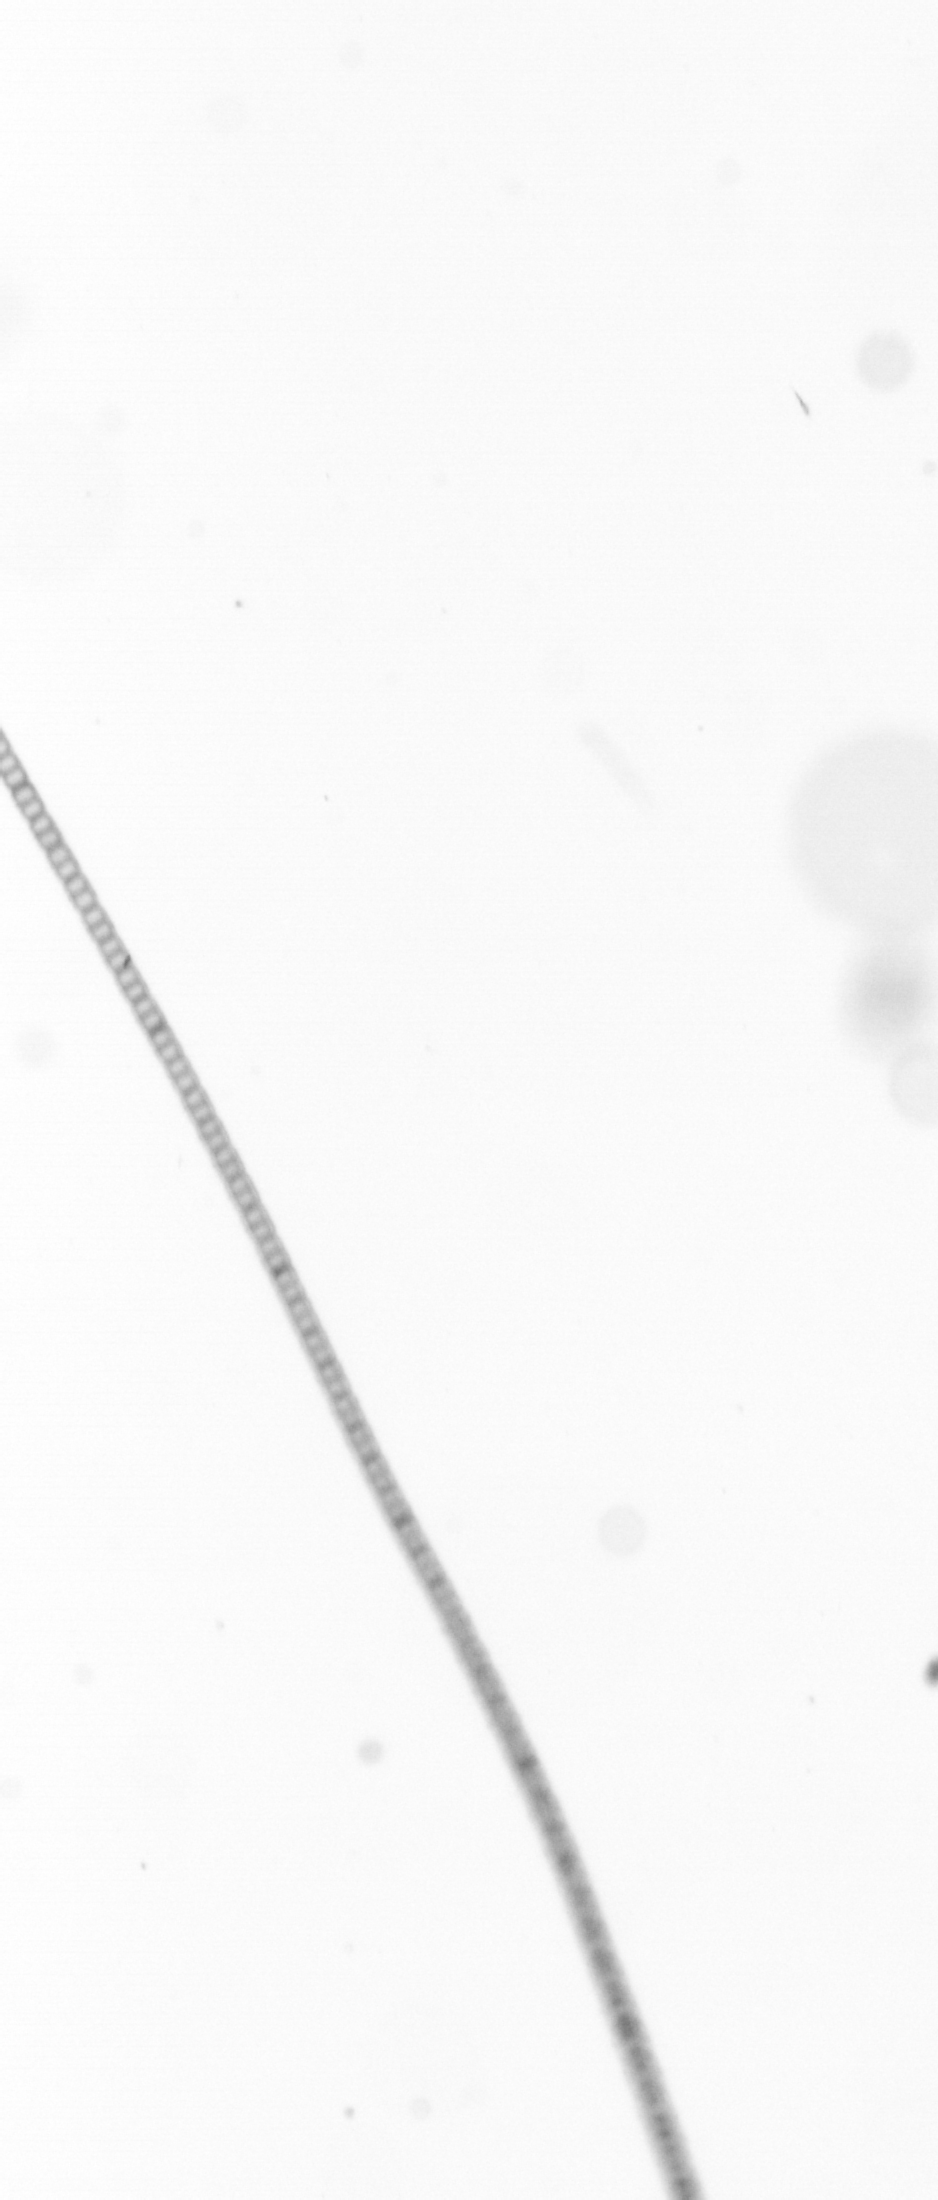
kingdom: Chromista
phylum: Ochrophyta
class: Bacillariophyceae
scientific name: Bacillariophyceae
